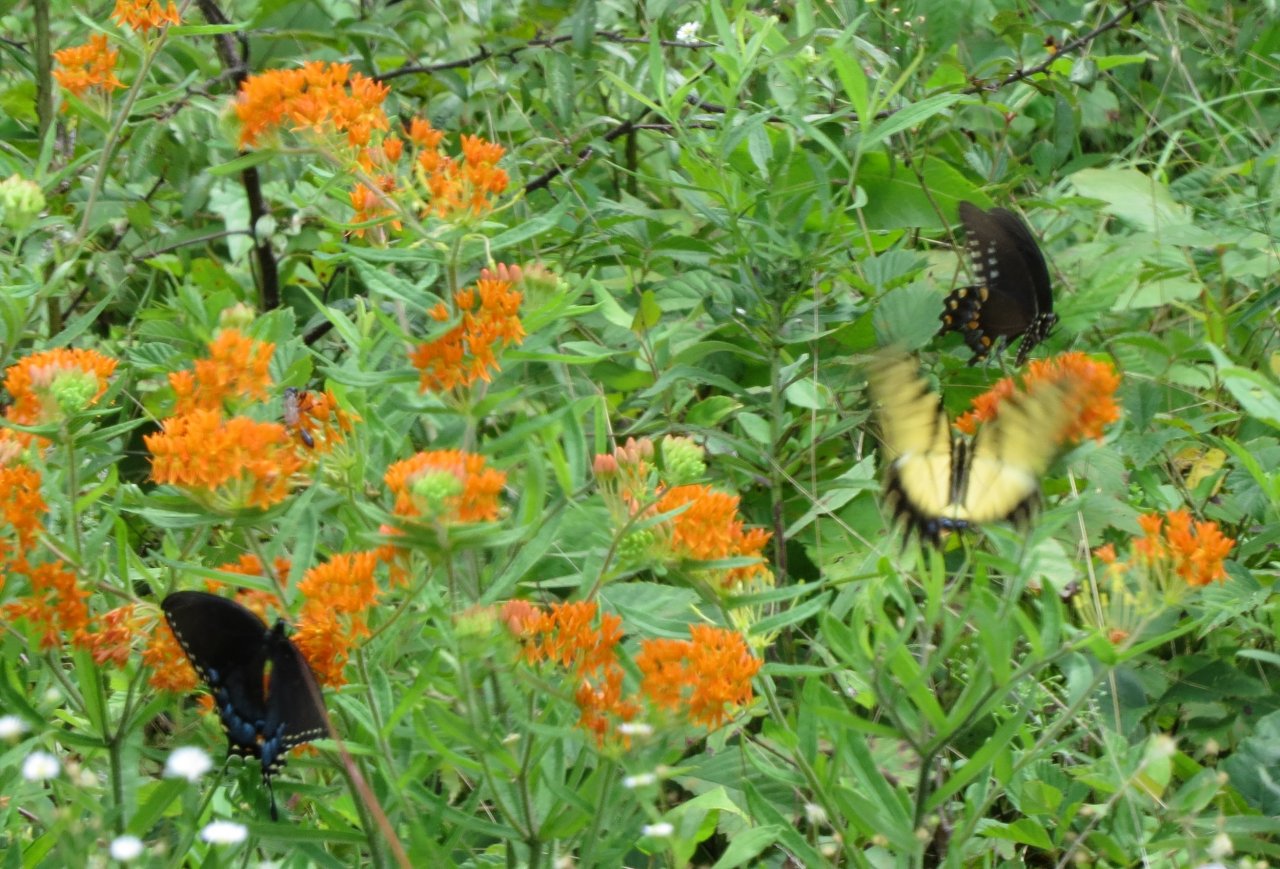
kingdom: Animalia
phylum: Arthropoda
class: Insecta
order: Lepidoptera
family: Papilionidae
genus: Pterourus
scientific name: Pterourus troilus
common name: Spicebush Swallowtail
